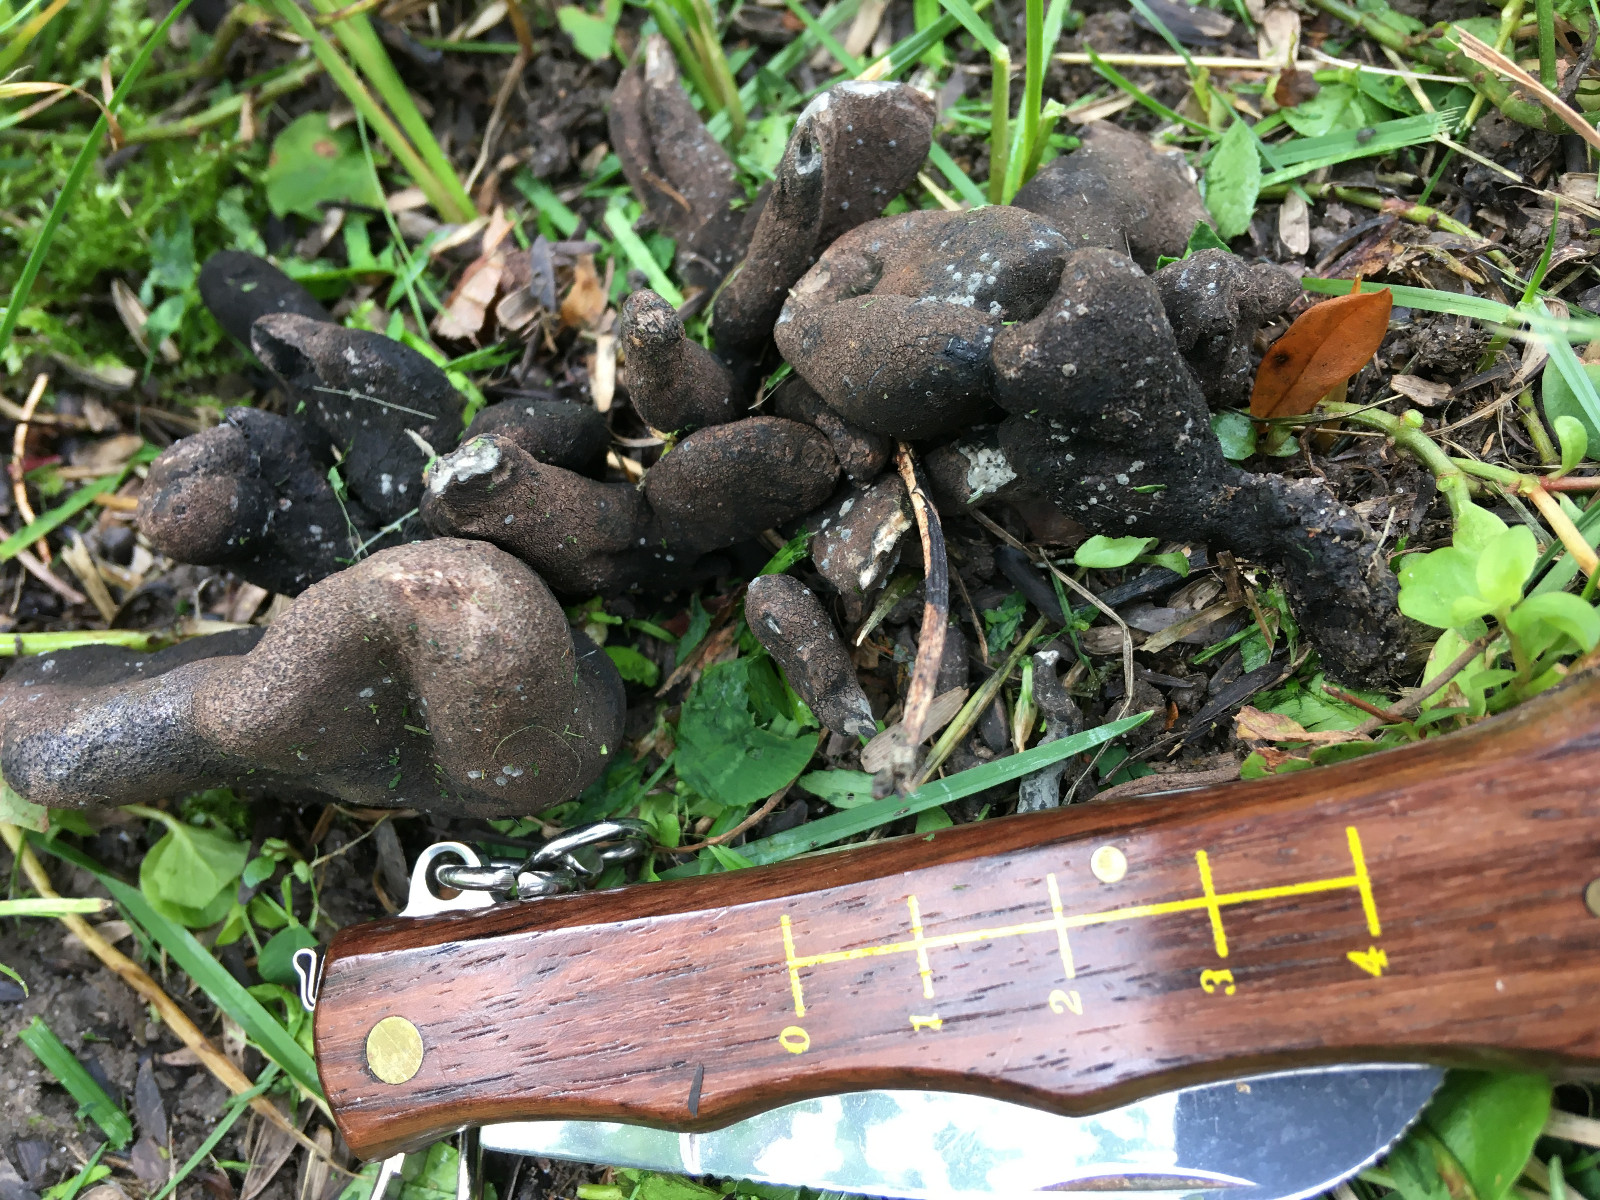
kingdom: Fungi
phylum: Ascomycota
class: Sordariomycetes
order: Xylariales
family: Xylariaceae
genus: Xylaria
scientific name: Xylaria polymorpha
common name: kølle-stødsvamp
